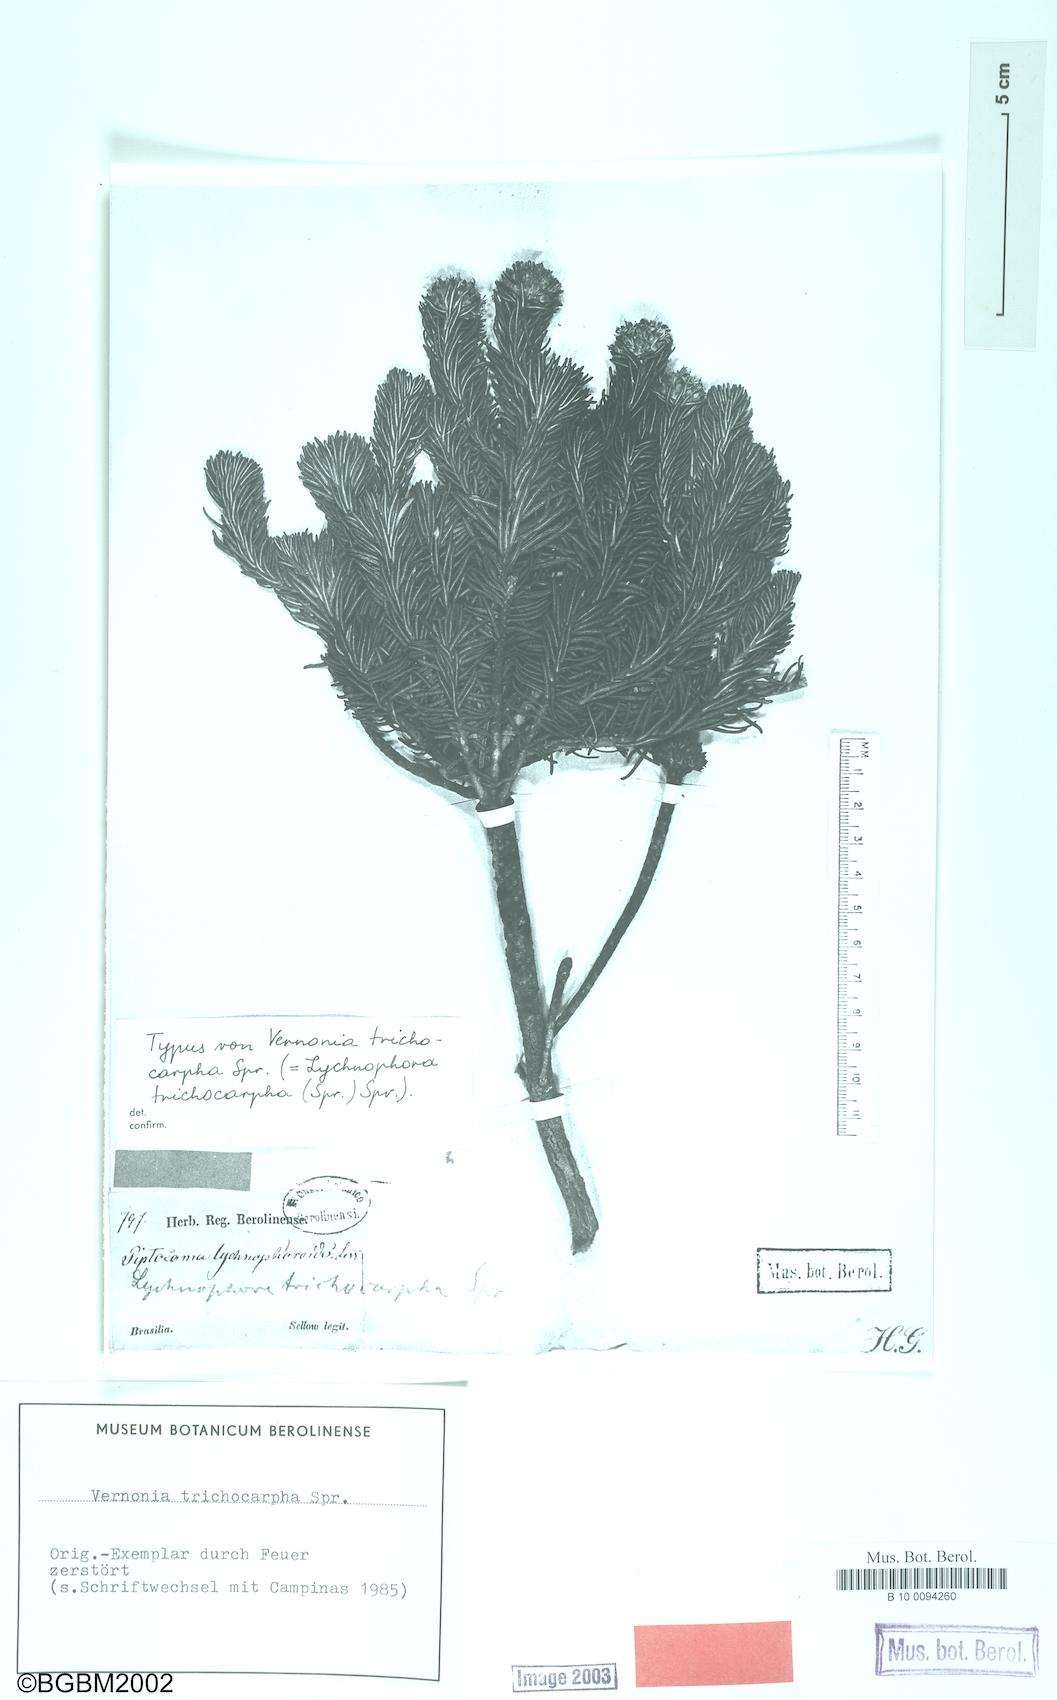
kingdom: Plantae
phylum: Tracheophyta
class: Magnoliopsida
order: Asterales
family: Asteraceae
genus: Lychnophora
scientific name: Lychnophora ericoides
